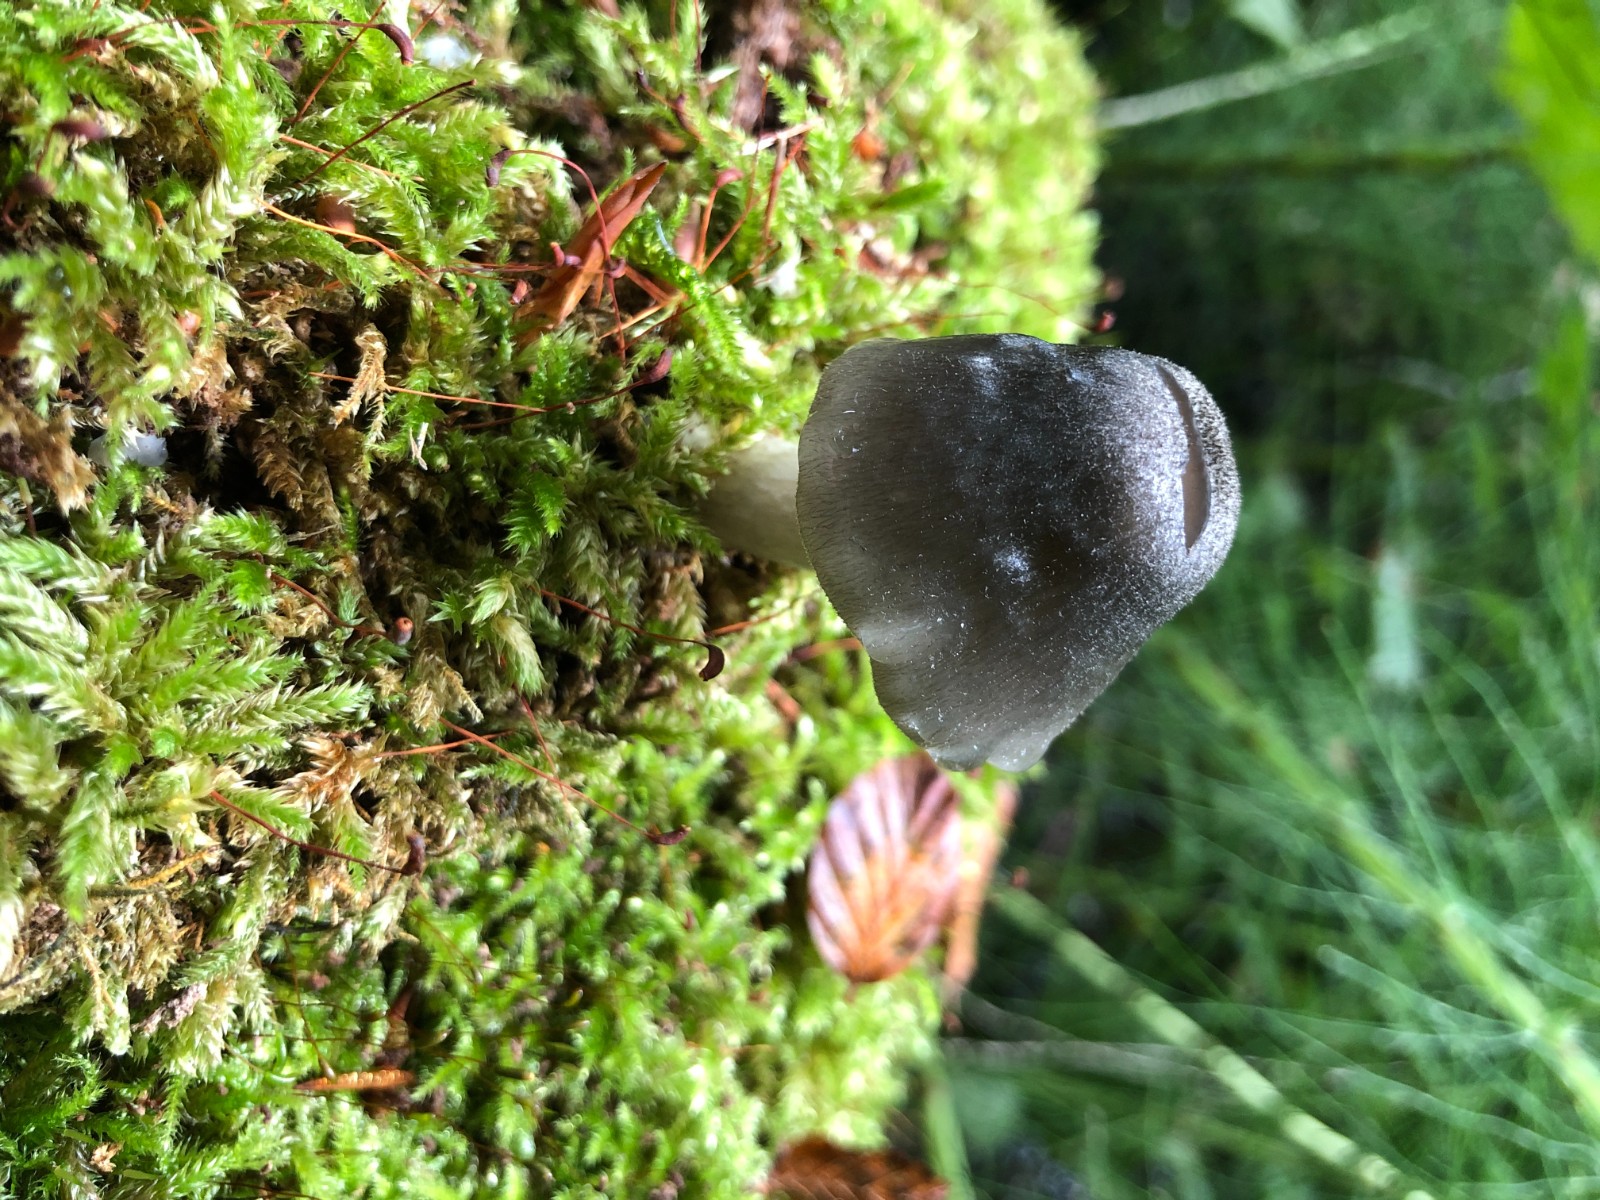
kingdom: Fungi
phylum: Basidiomycota
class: Agaricomycetes
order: Agaricales
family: Pluteaceae
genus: Pluteus
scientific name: Pluteus salicinus
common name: stiv skærmhat
